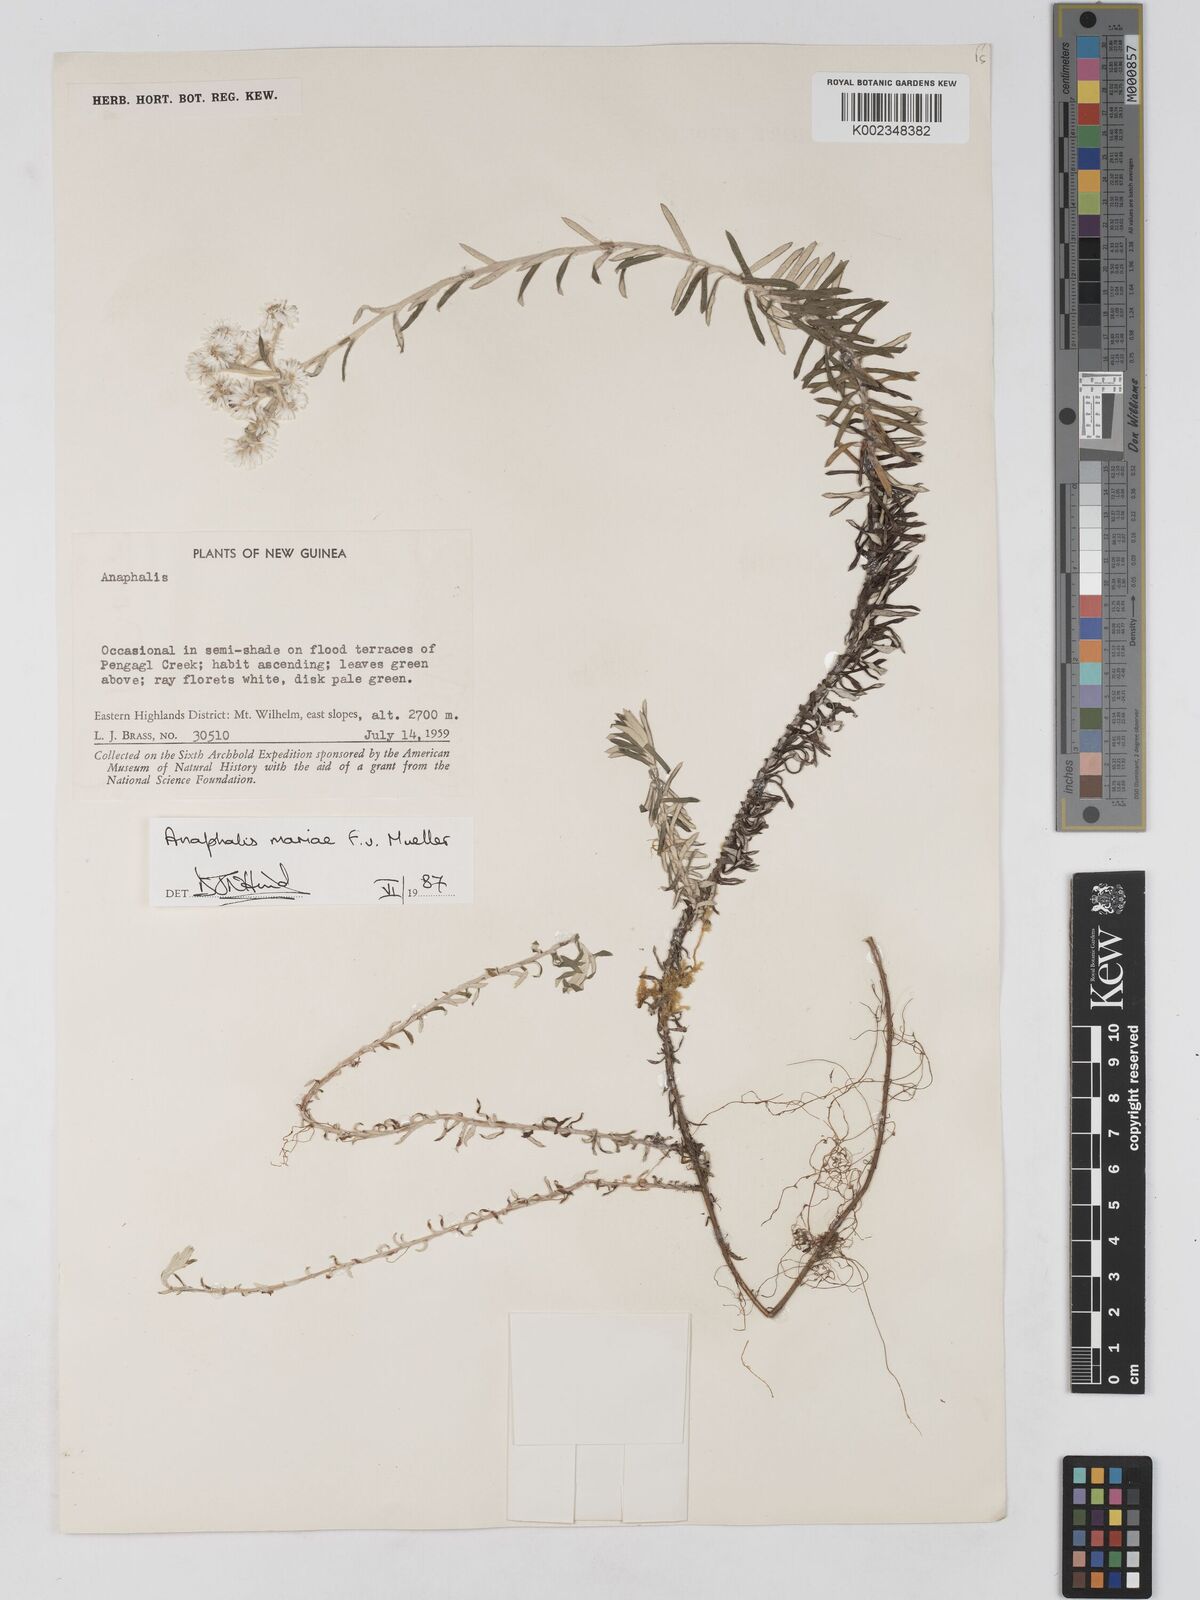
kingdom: Plantae
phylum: Tracheophyta
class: Magnoliopsida
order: Asterales
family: Asteraceae
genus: Anaphalioides
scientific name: Anaphalioides mariae
